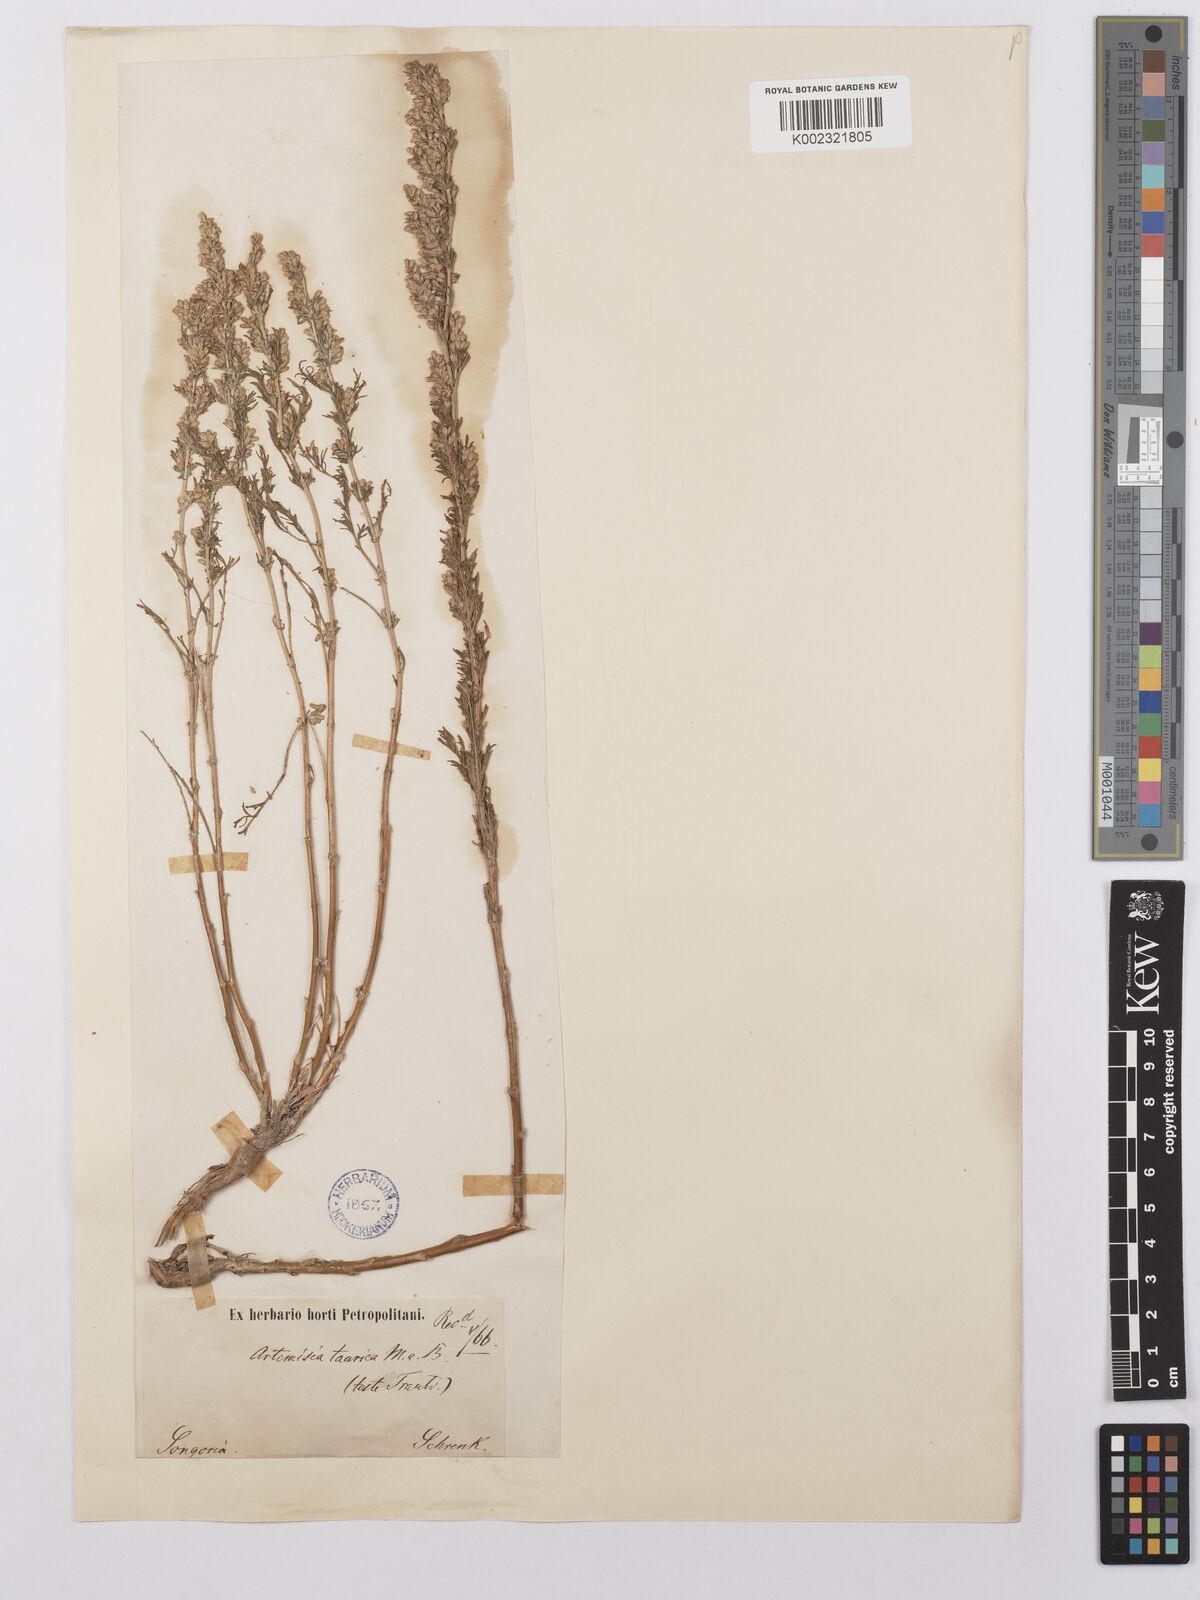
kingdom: Plantae
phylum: Tracheophyta
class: Magnoliopsida
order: Asterales
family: Asteraceae
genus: Artemisia
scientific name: Artemisia taurica
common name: Tauric wormwood
